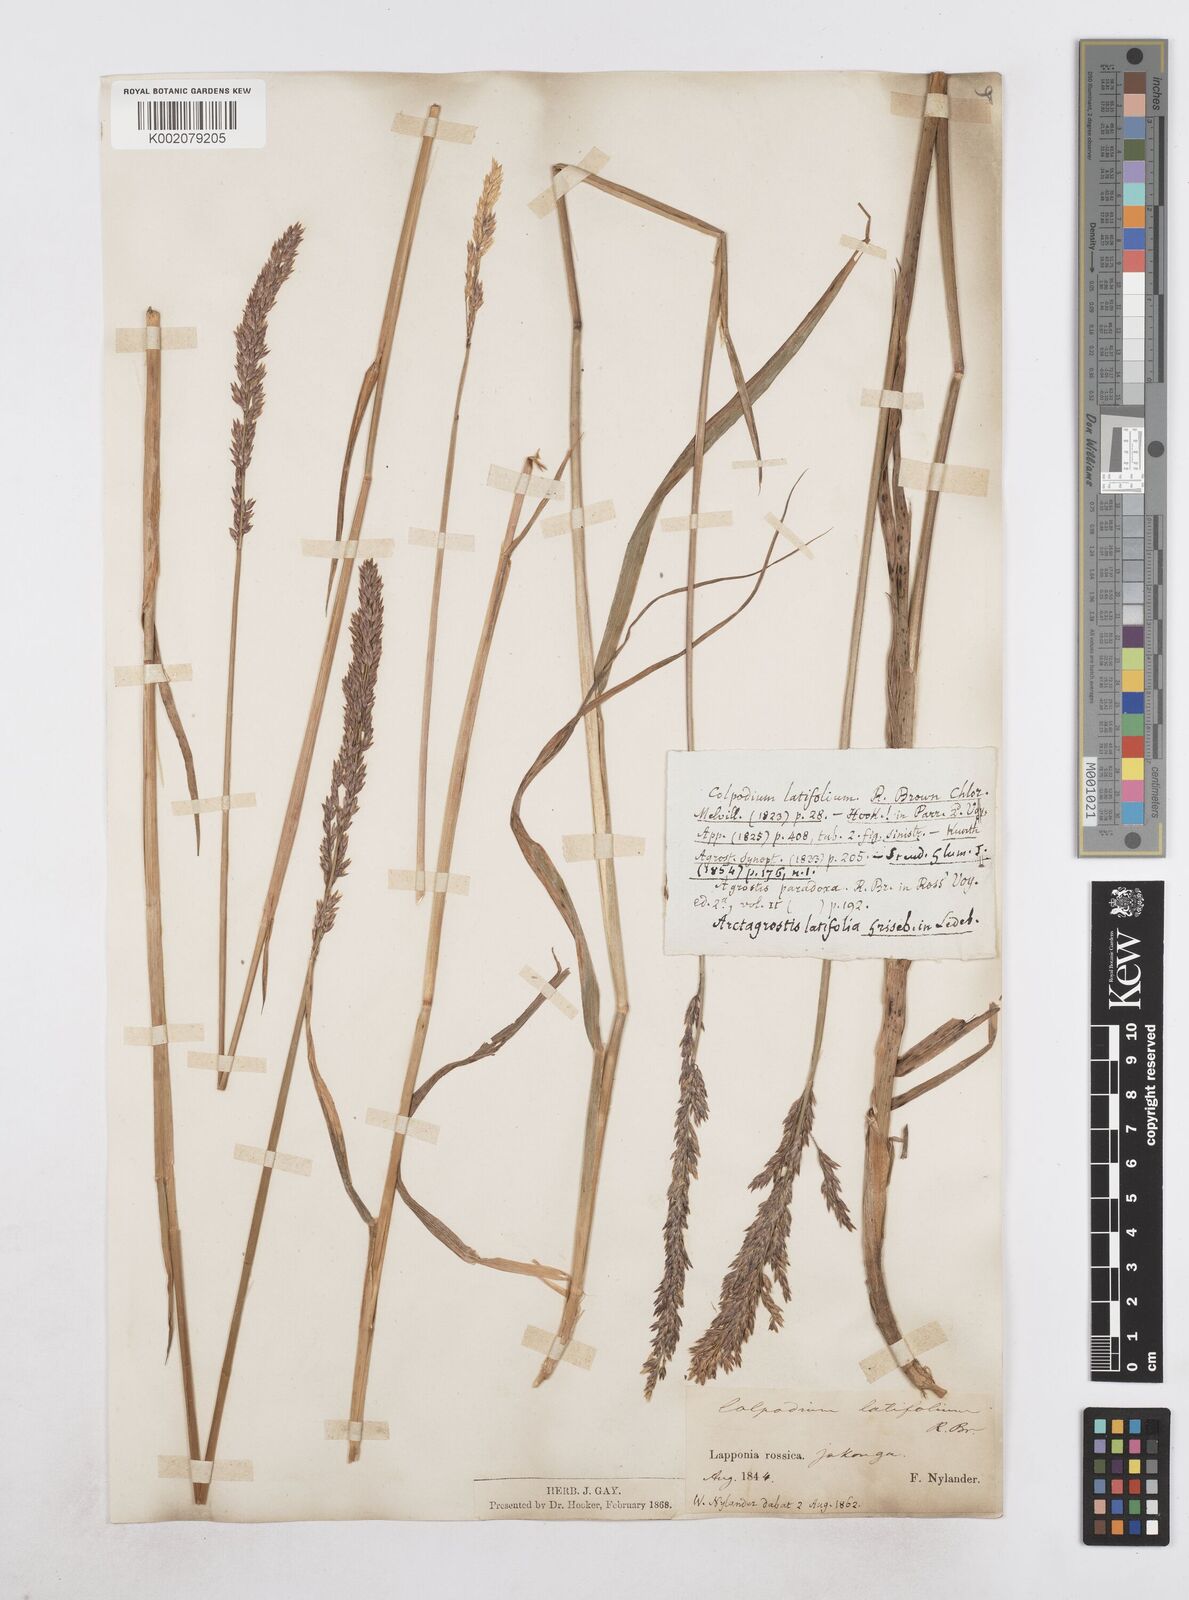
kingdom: Plantae
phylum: Tracheophyta
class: Liliopsida
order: Poales
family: Poaceae
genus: Arctagrostis
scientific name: Arctagrostis latifolia
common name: Arctic grass
